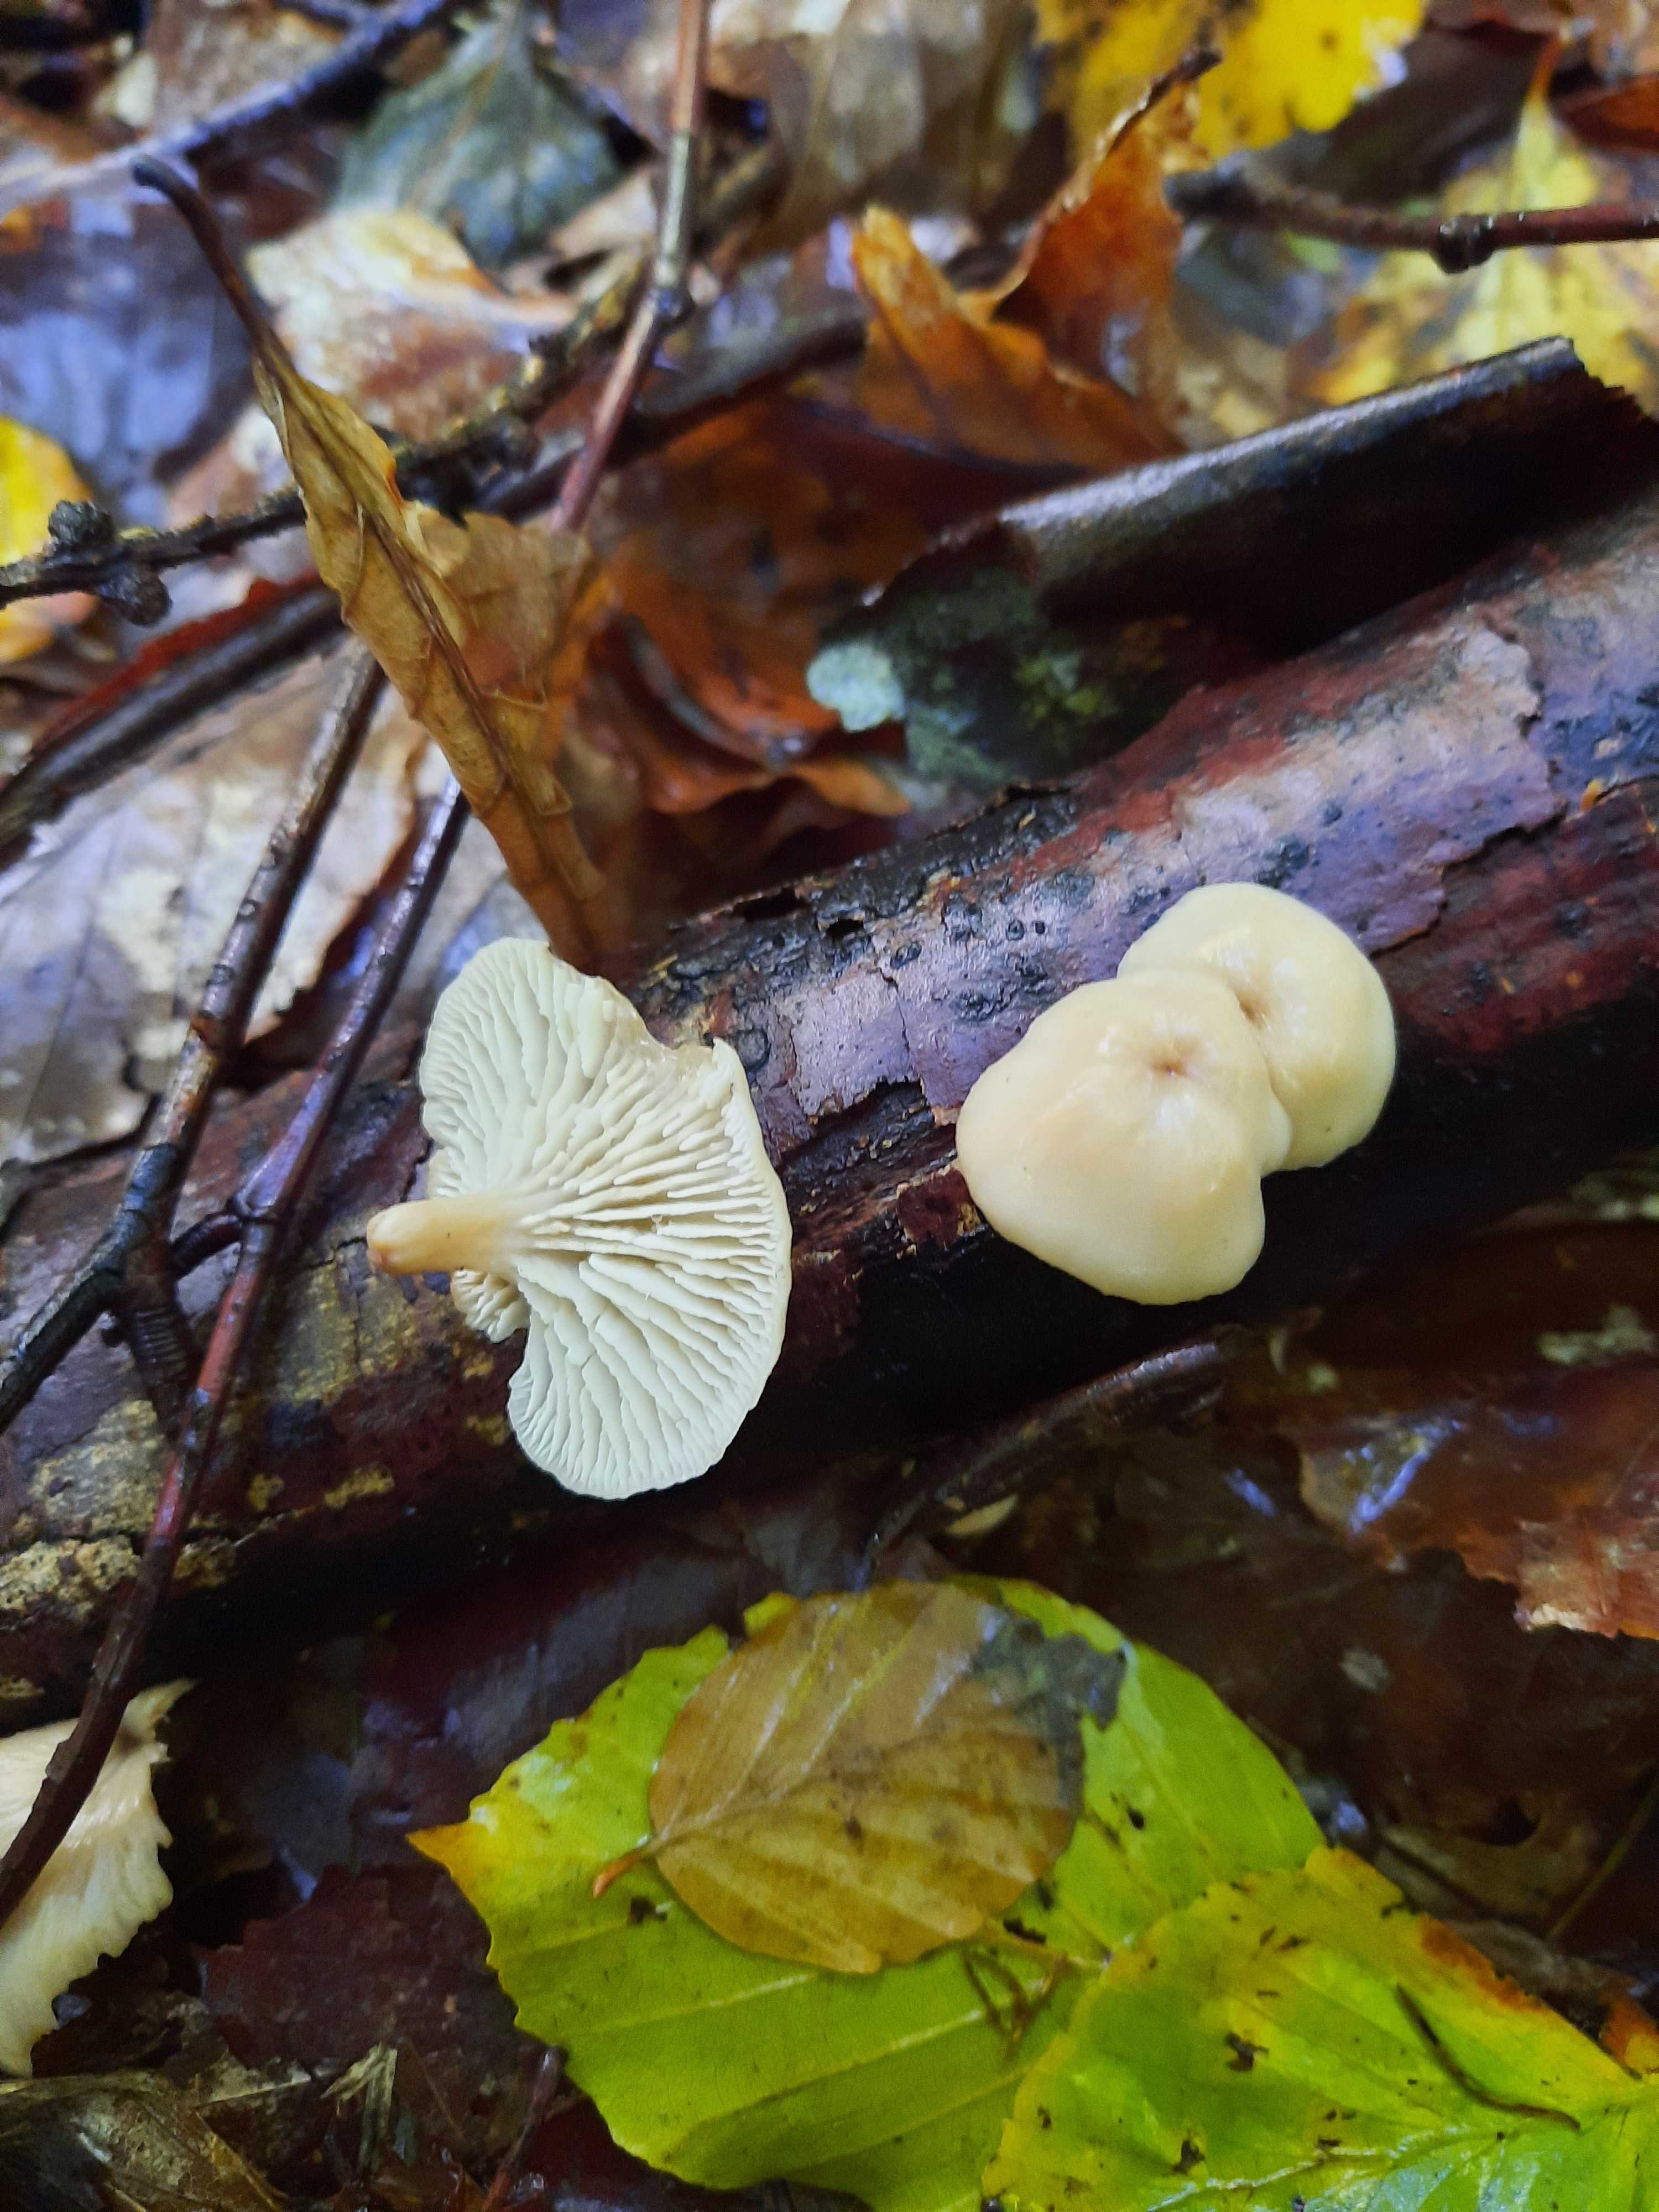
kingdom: Fungi
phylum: Basidiomycota
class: Agaricomycetes
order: Russulales
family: Auriscalpiaceae
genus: Lentinellus
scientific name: Lentinellus flabelliformis
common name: navle-savbladhat
